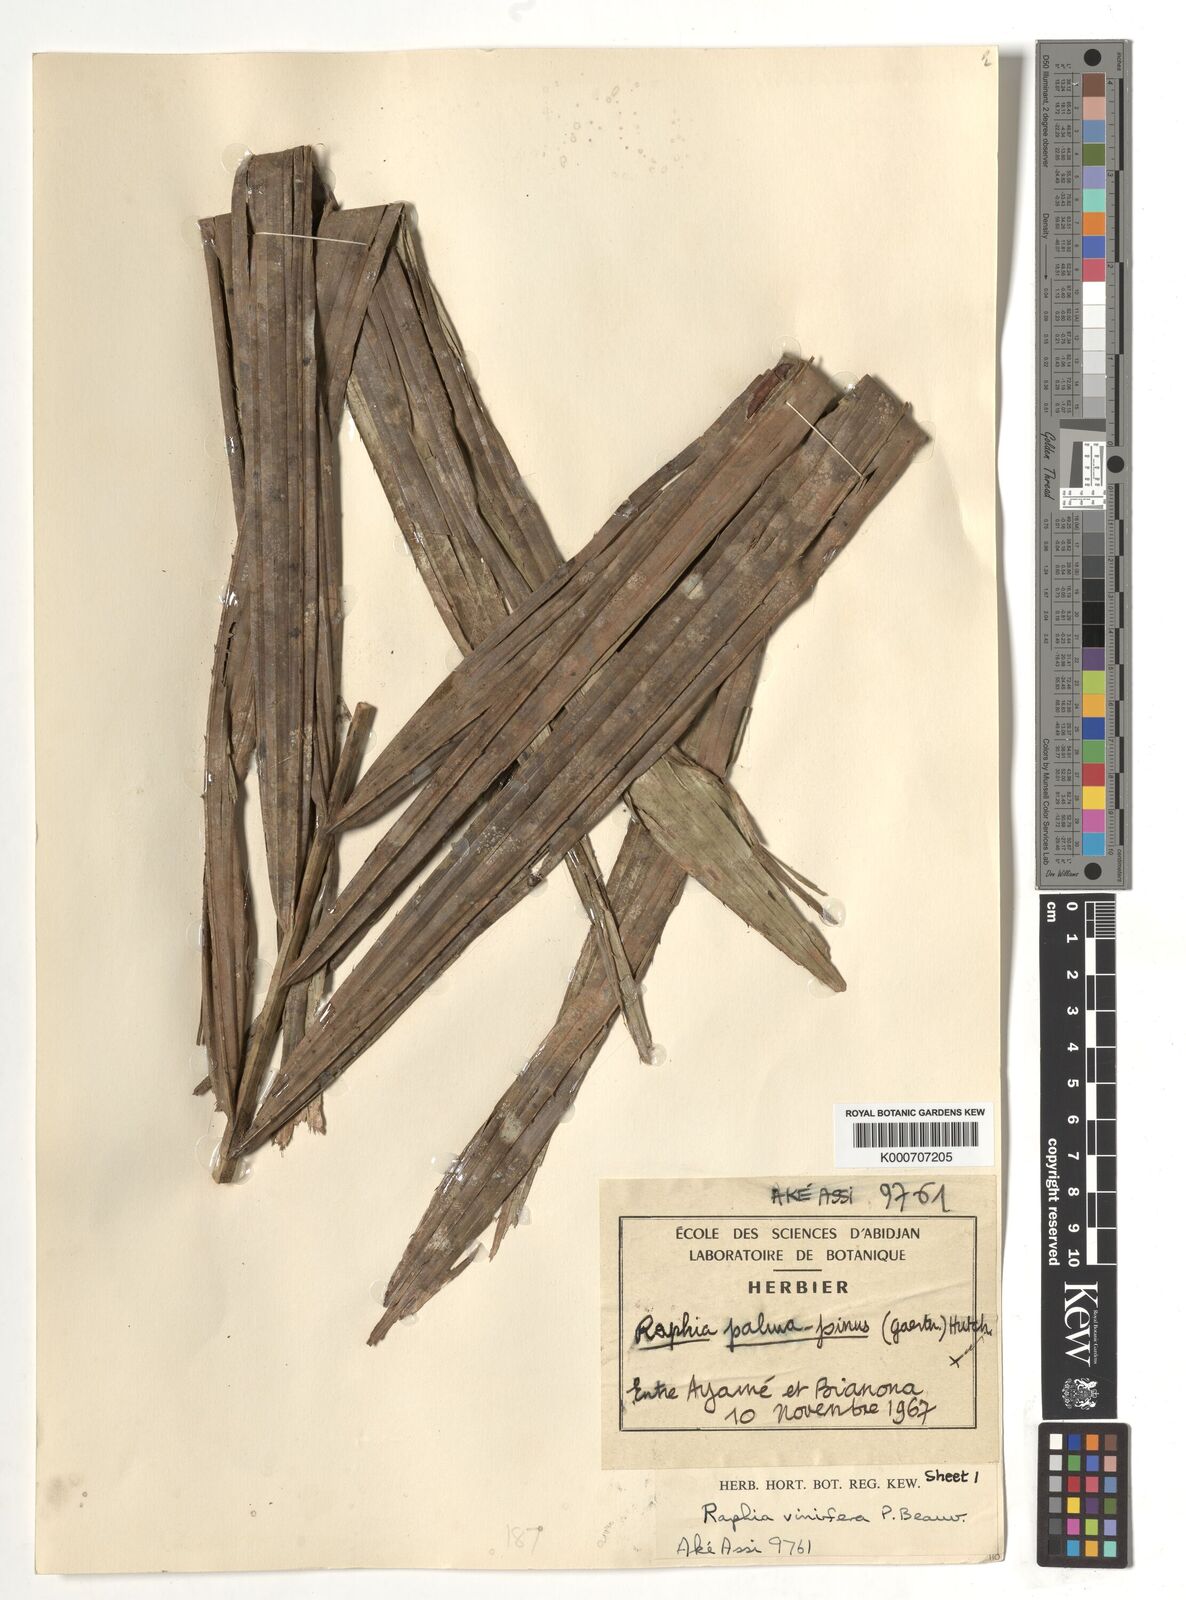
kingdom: Plantae
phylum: Tracheophyta
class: Liliopsida
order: Arecales
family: Arecaceae
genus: Raphia
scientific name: Raphia vinifera
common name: Raphia palm
